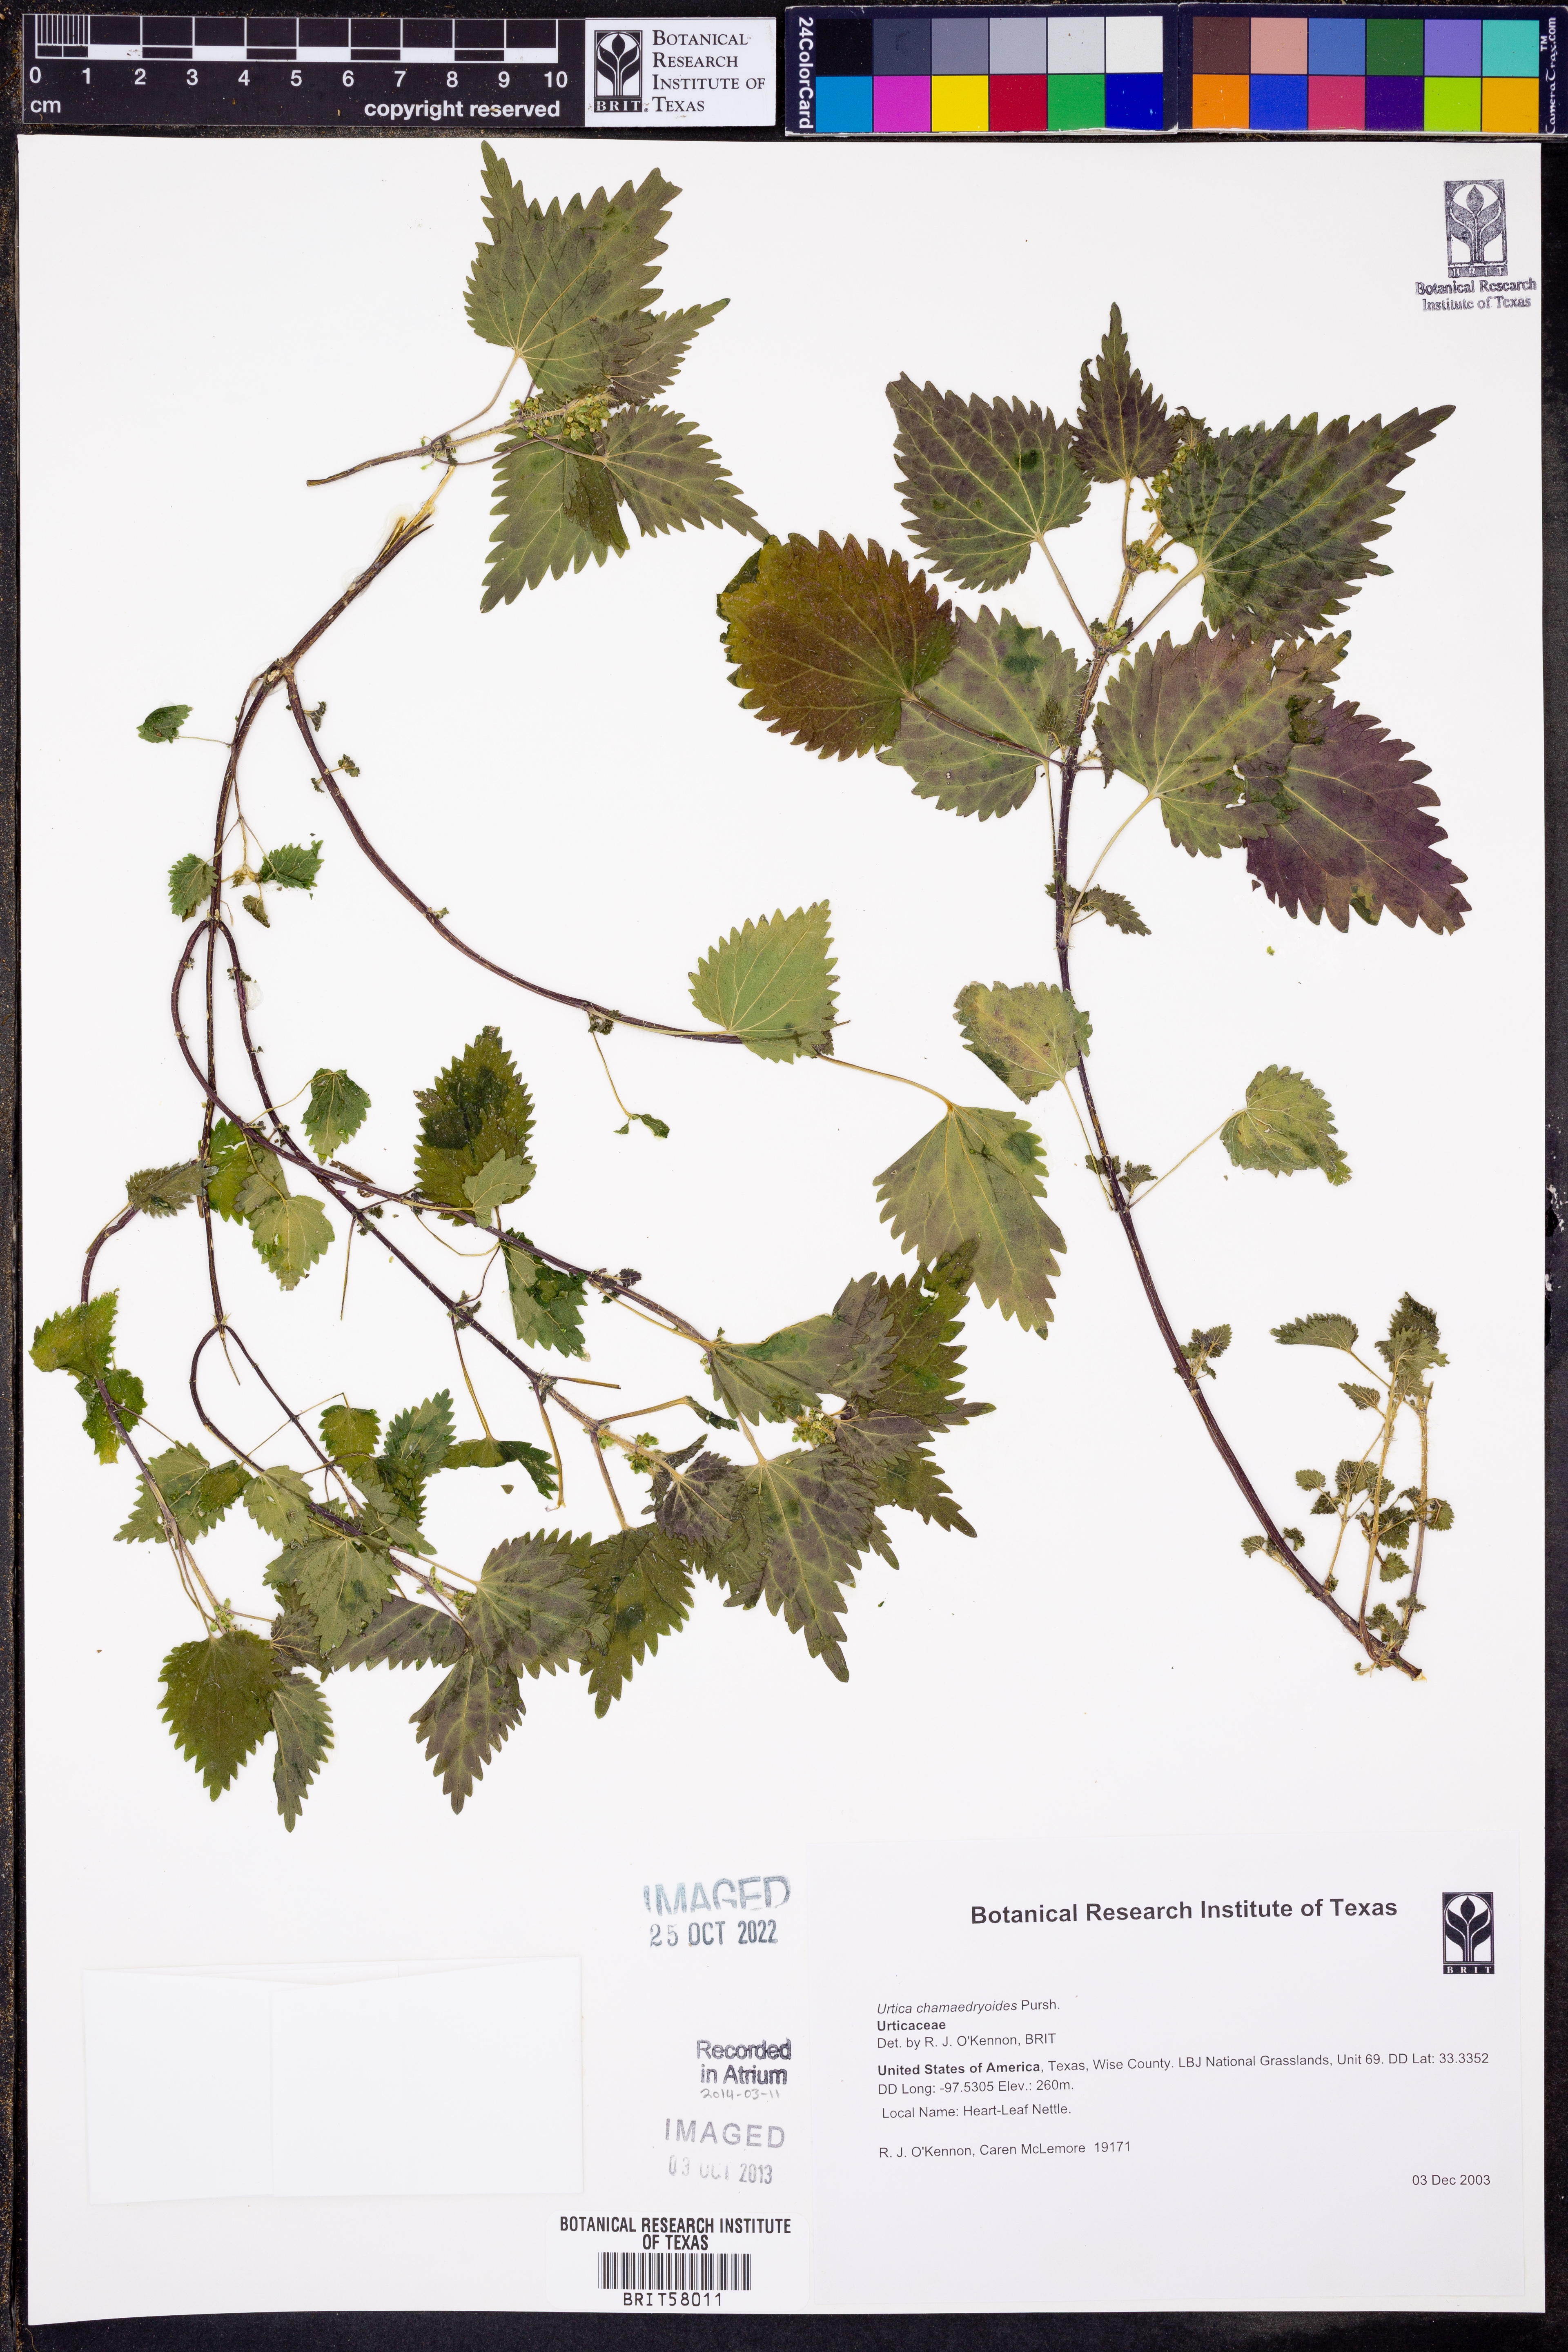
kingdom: Plantae
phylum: Tracheophyta
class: Magnoliopsida
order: Rosales
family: Urticaceae
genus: Urtica
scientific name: Urtica chamaedryoides
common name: Heart-leaf nettle
